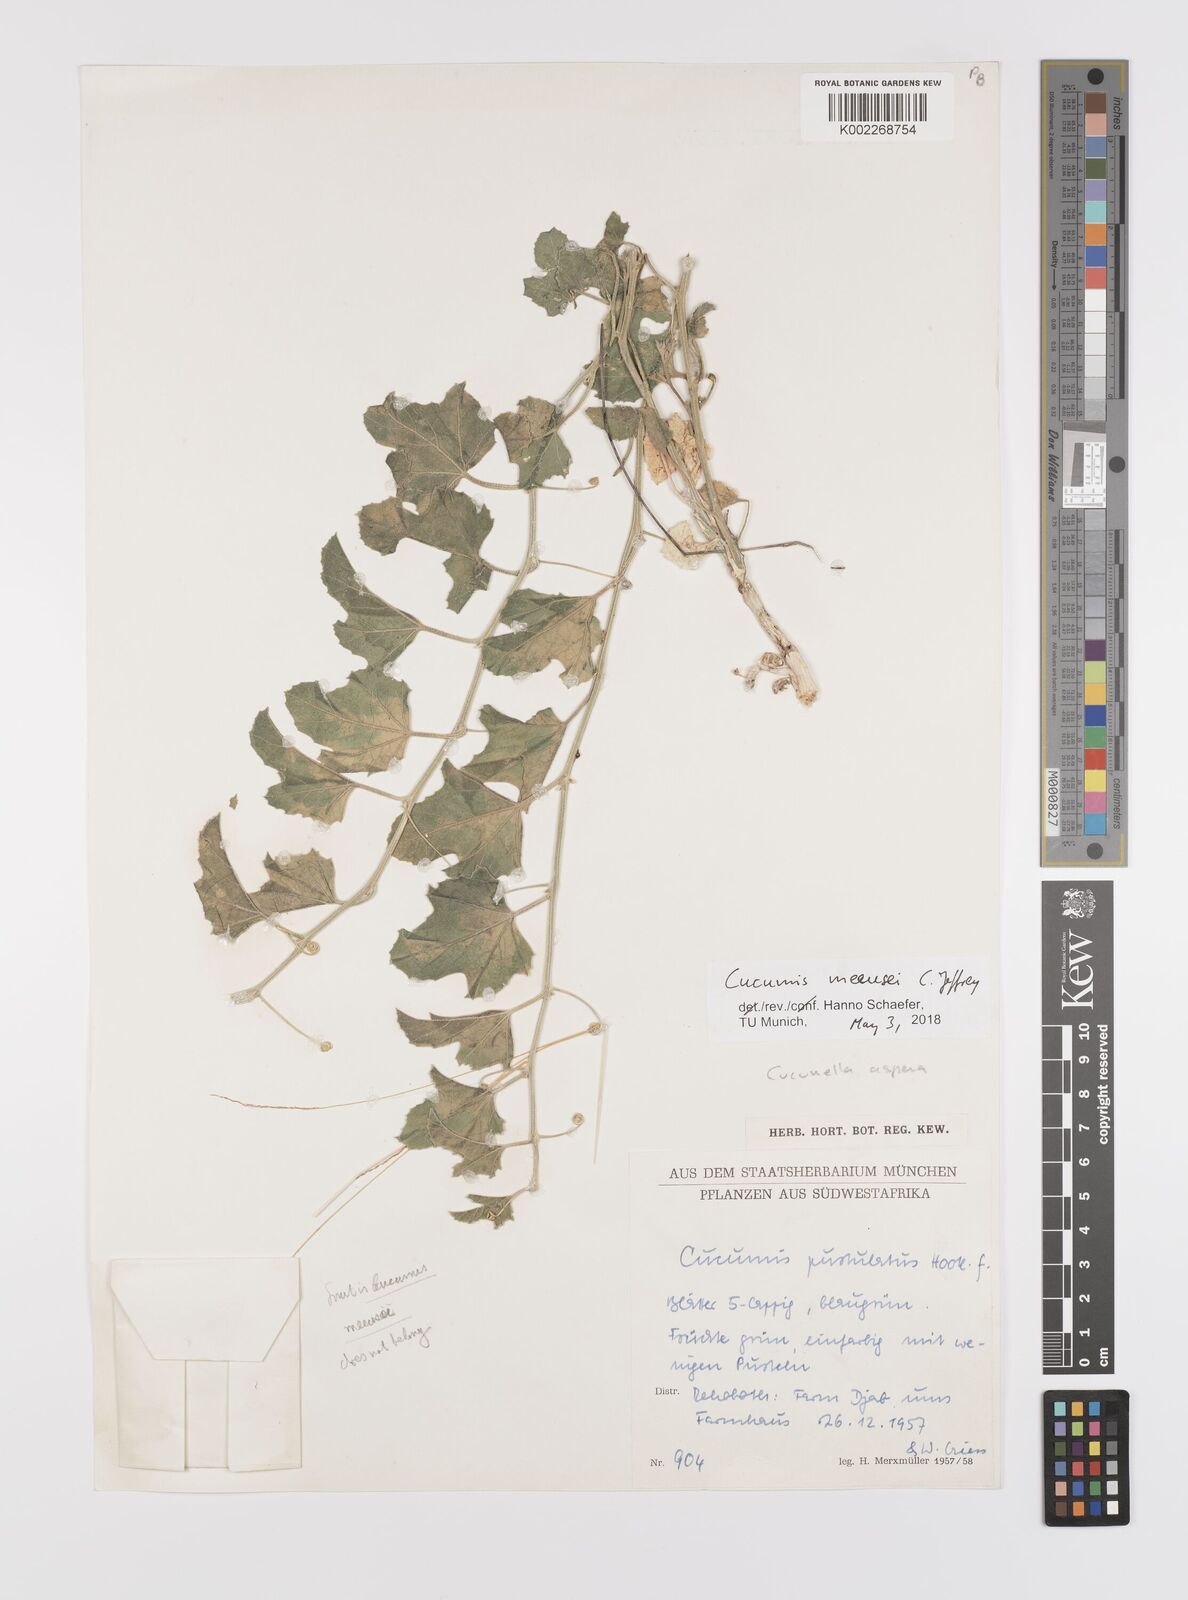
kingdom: Plantae
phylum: Tracheophyta
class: Magnoliopsida
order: Cucurbitales
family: Cucurbitaceae
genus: Cucumis
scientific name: Cucumis meeusei
